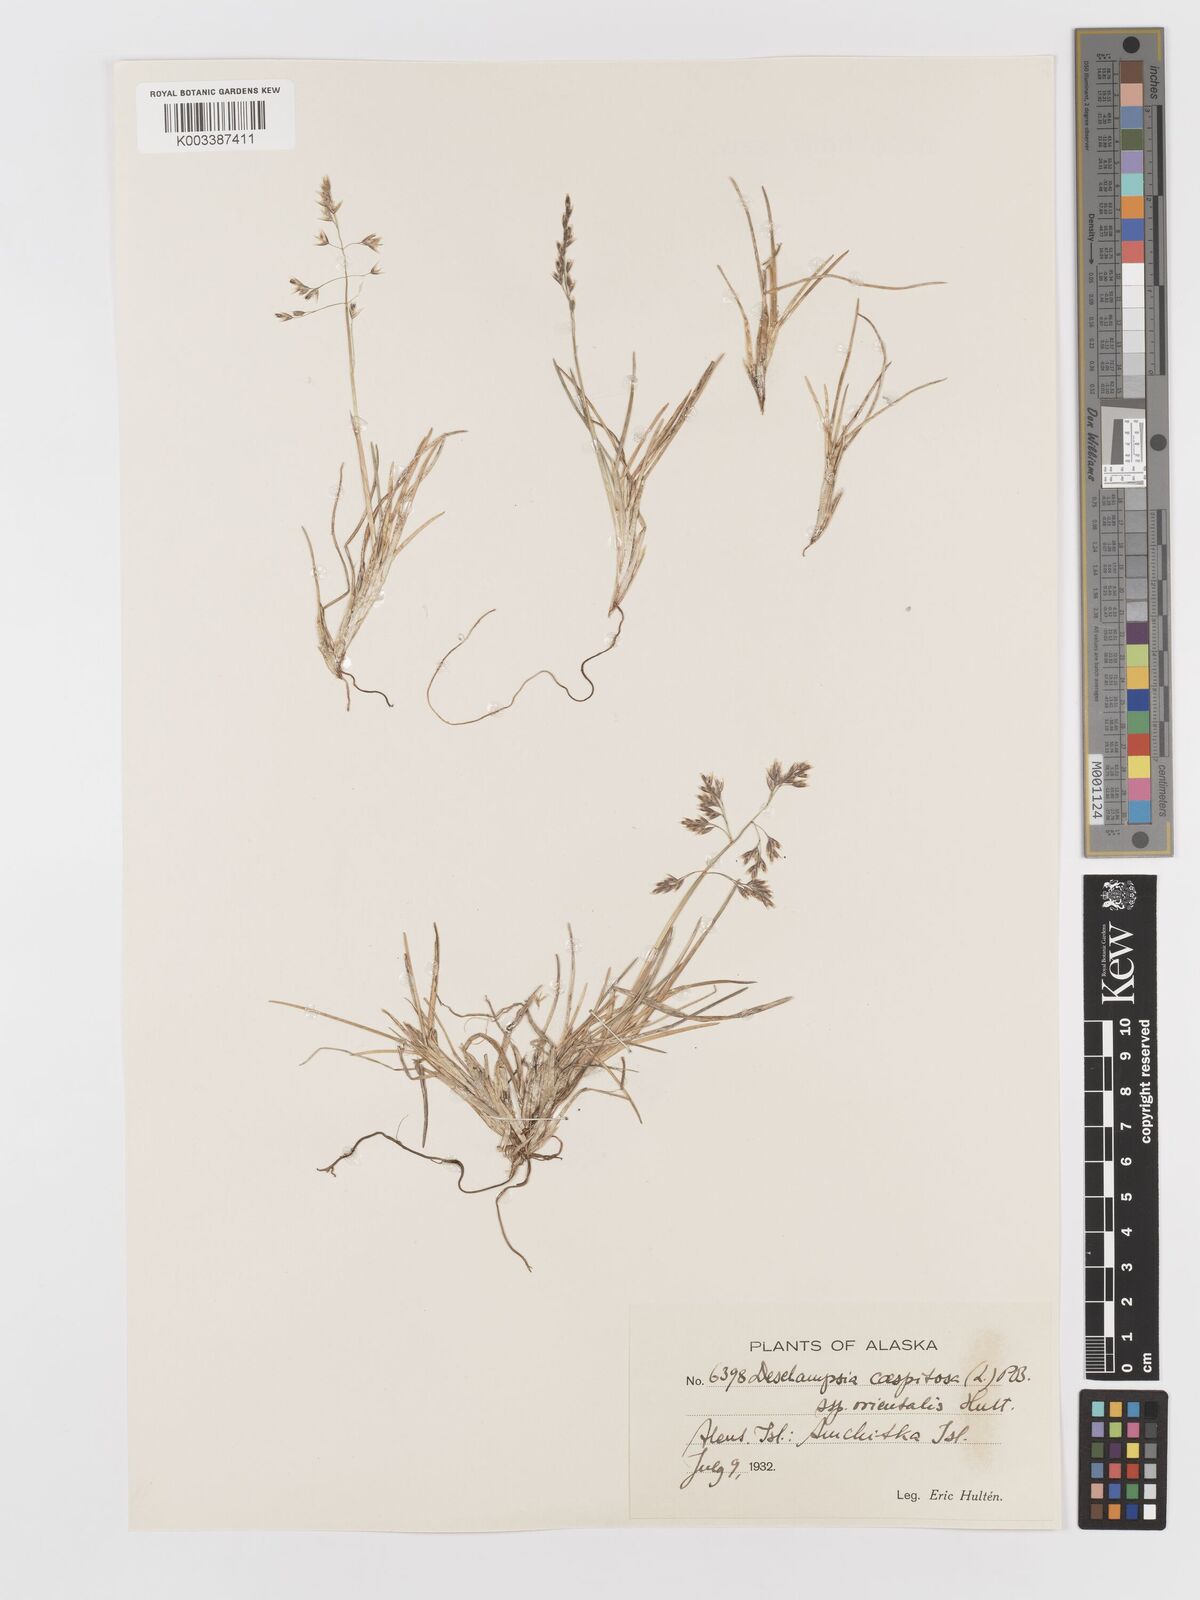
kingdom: Plantae
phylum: Tracheophyta
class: Liliopsida
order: Poales
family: Poaceae
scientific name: Poaceae
